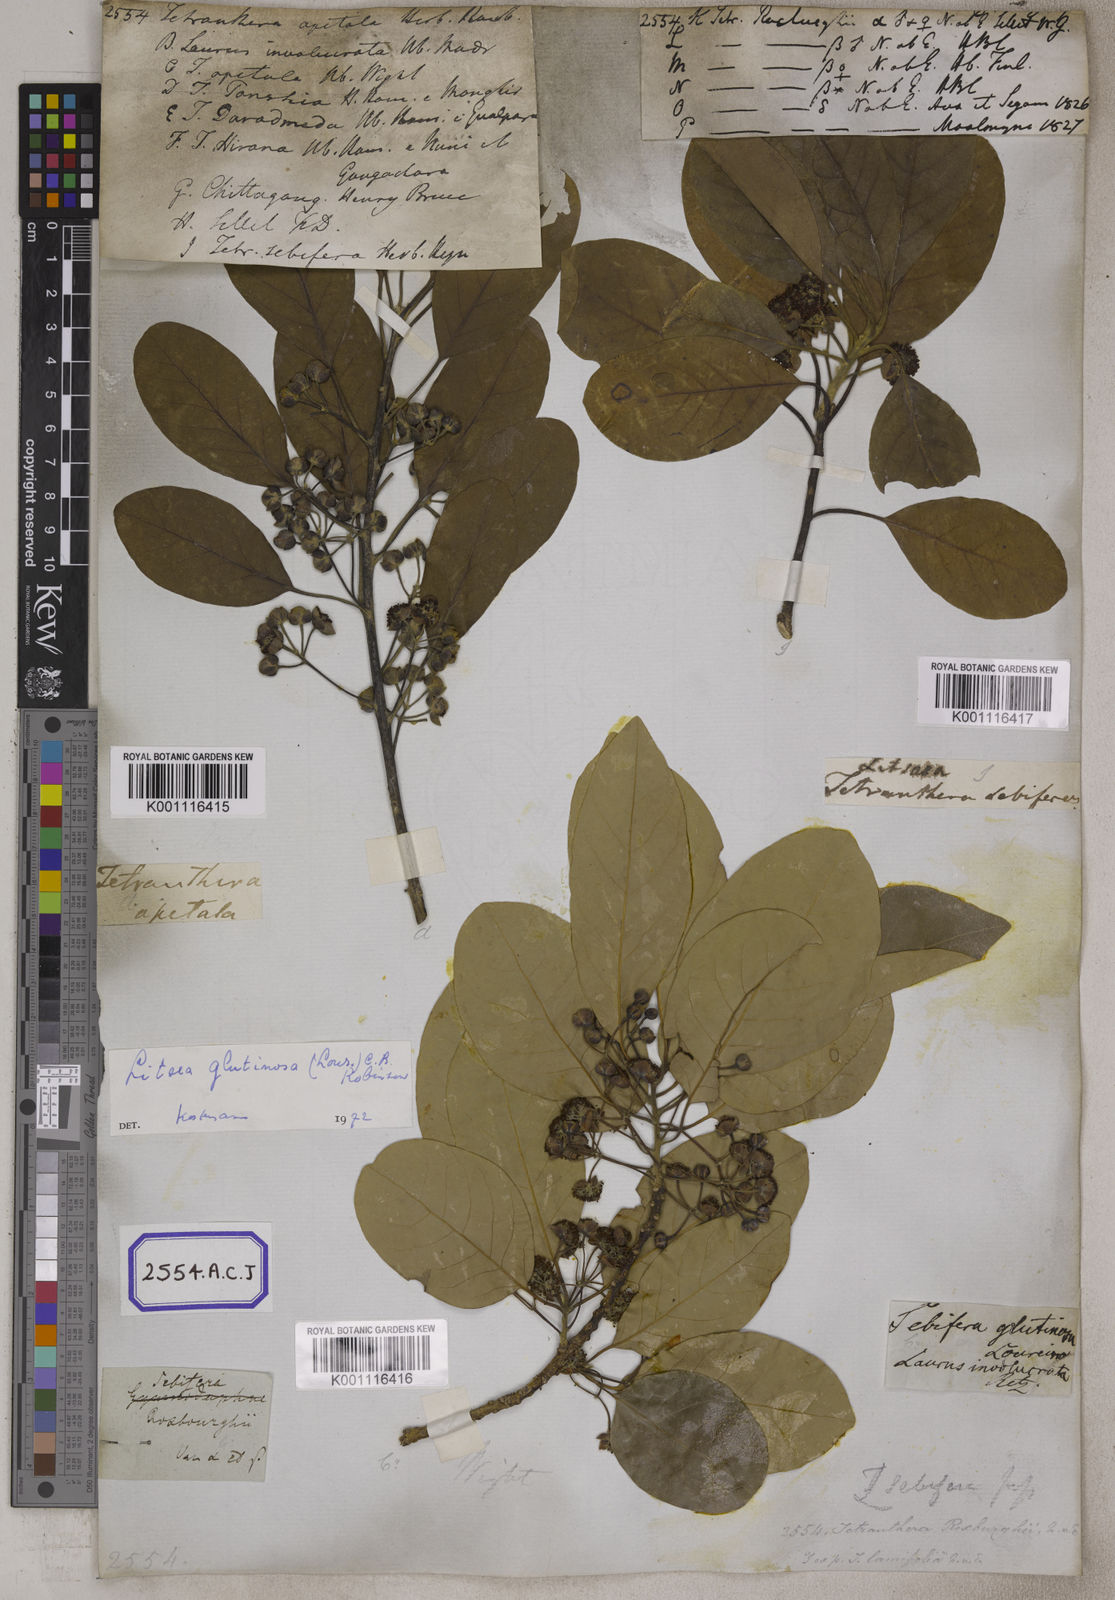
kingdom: Plantae
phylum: Tracheophyta
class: Magnoliopsida
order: Laurales
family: Lauraceae
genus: Litsea
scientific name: Litsea glutinosa
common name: Indian-laurel
